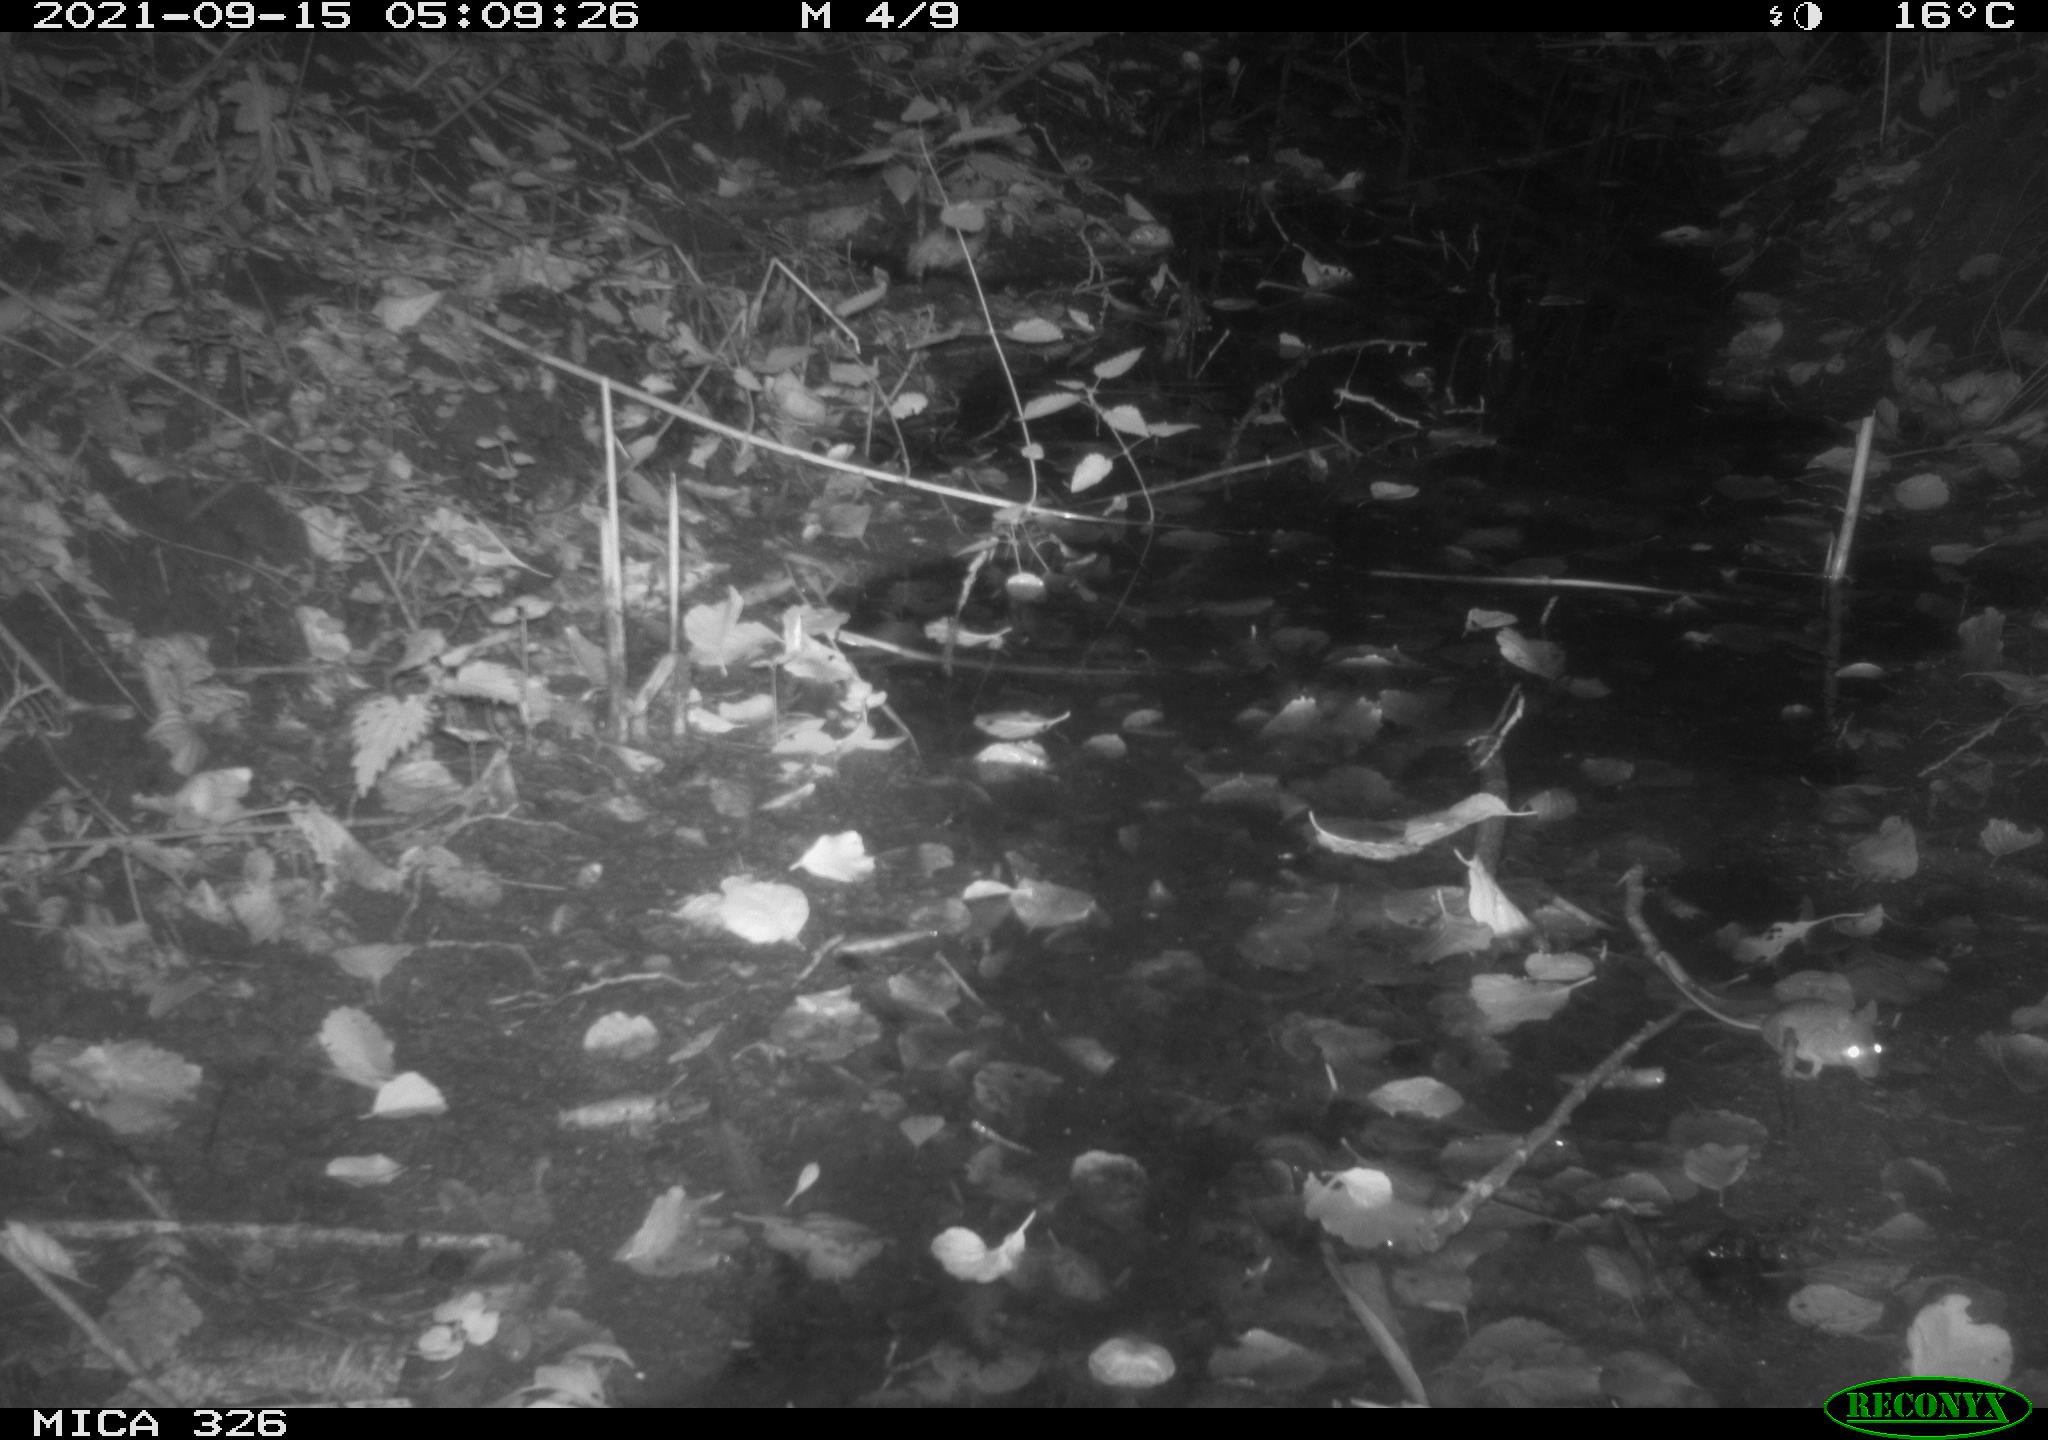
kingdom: Animalia
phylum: Chordata
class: Mammalia
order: Rodentia
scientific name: Rodentia
